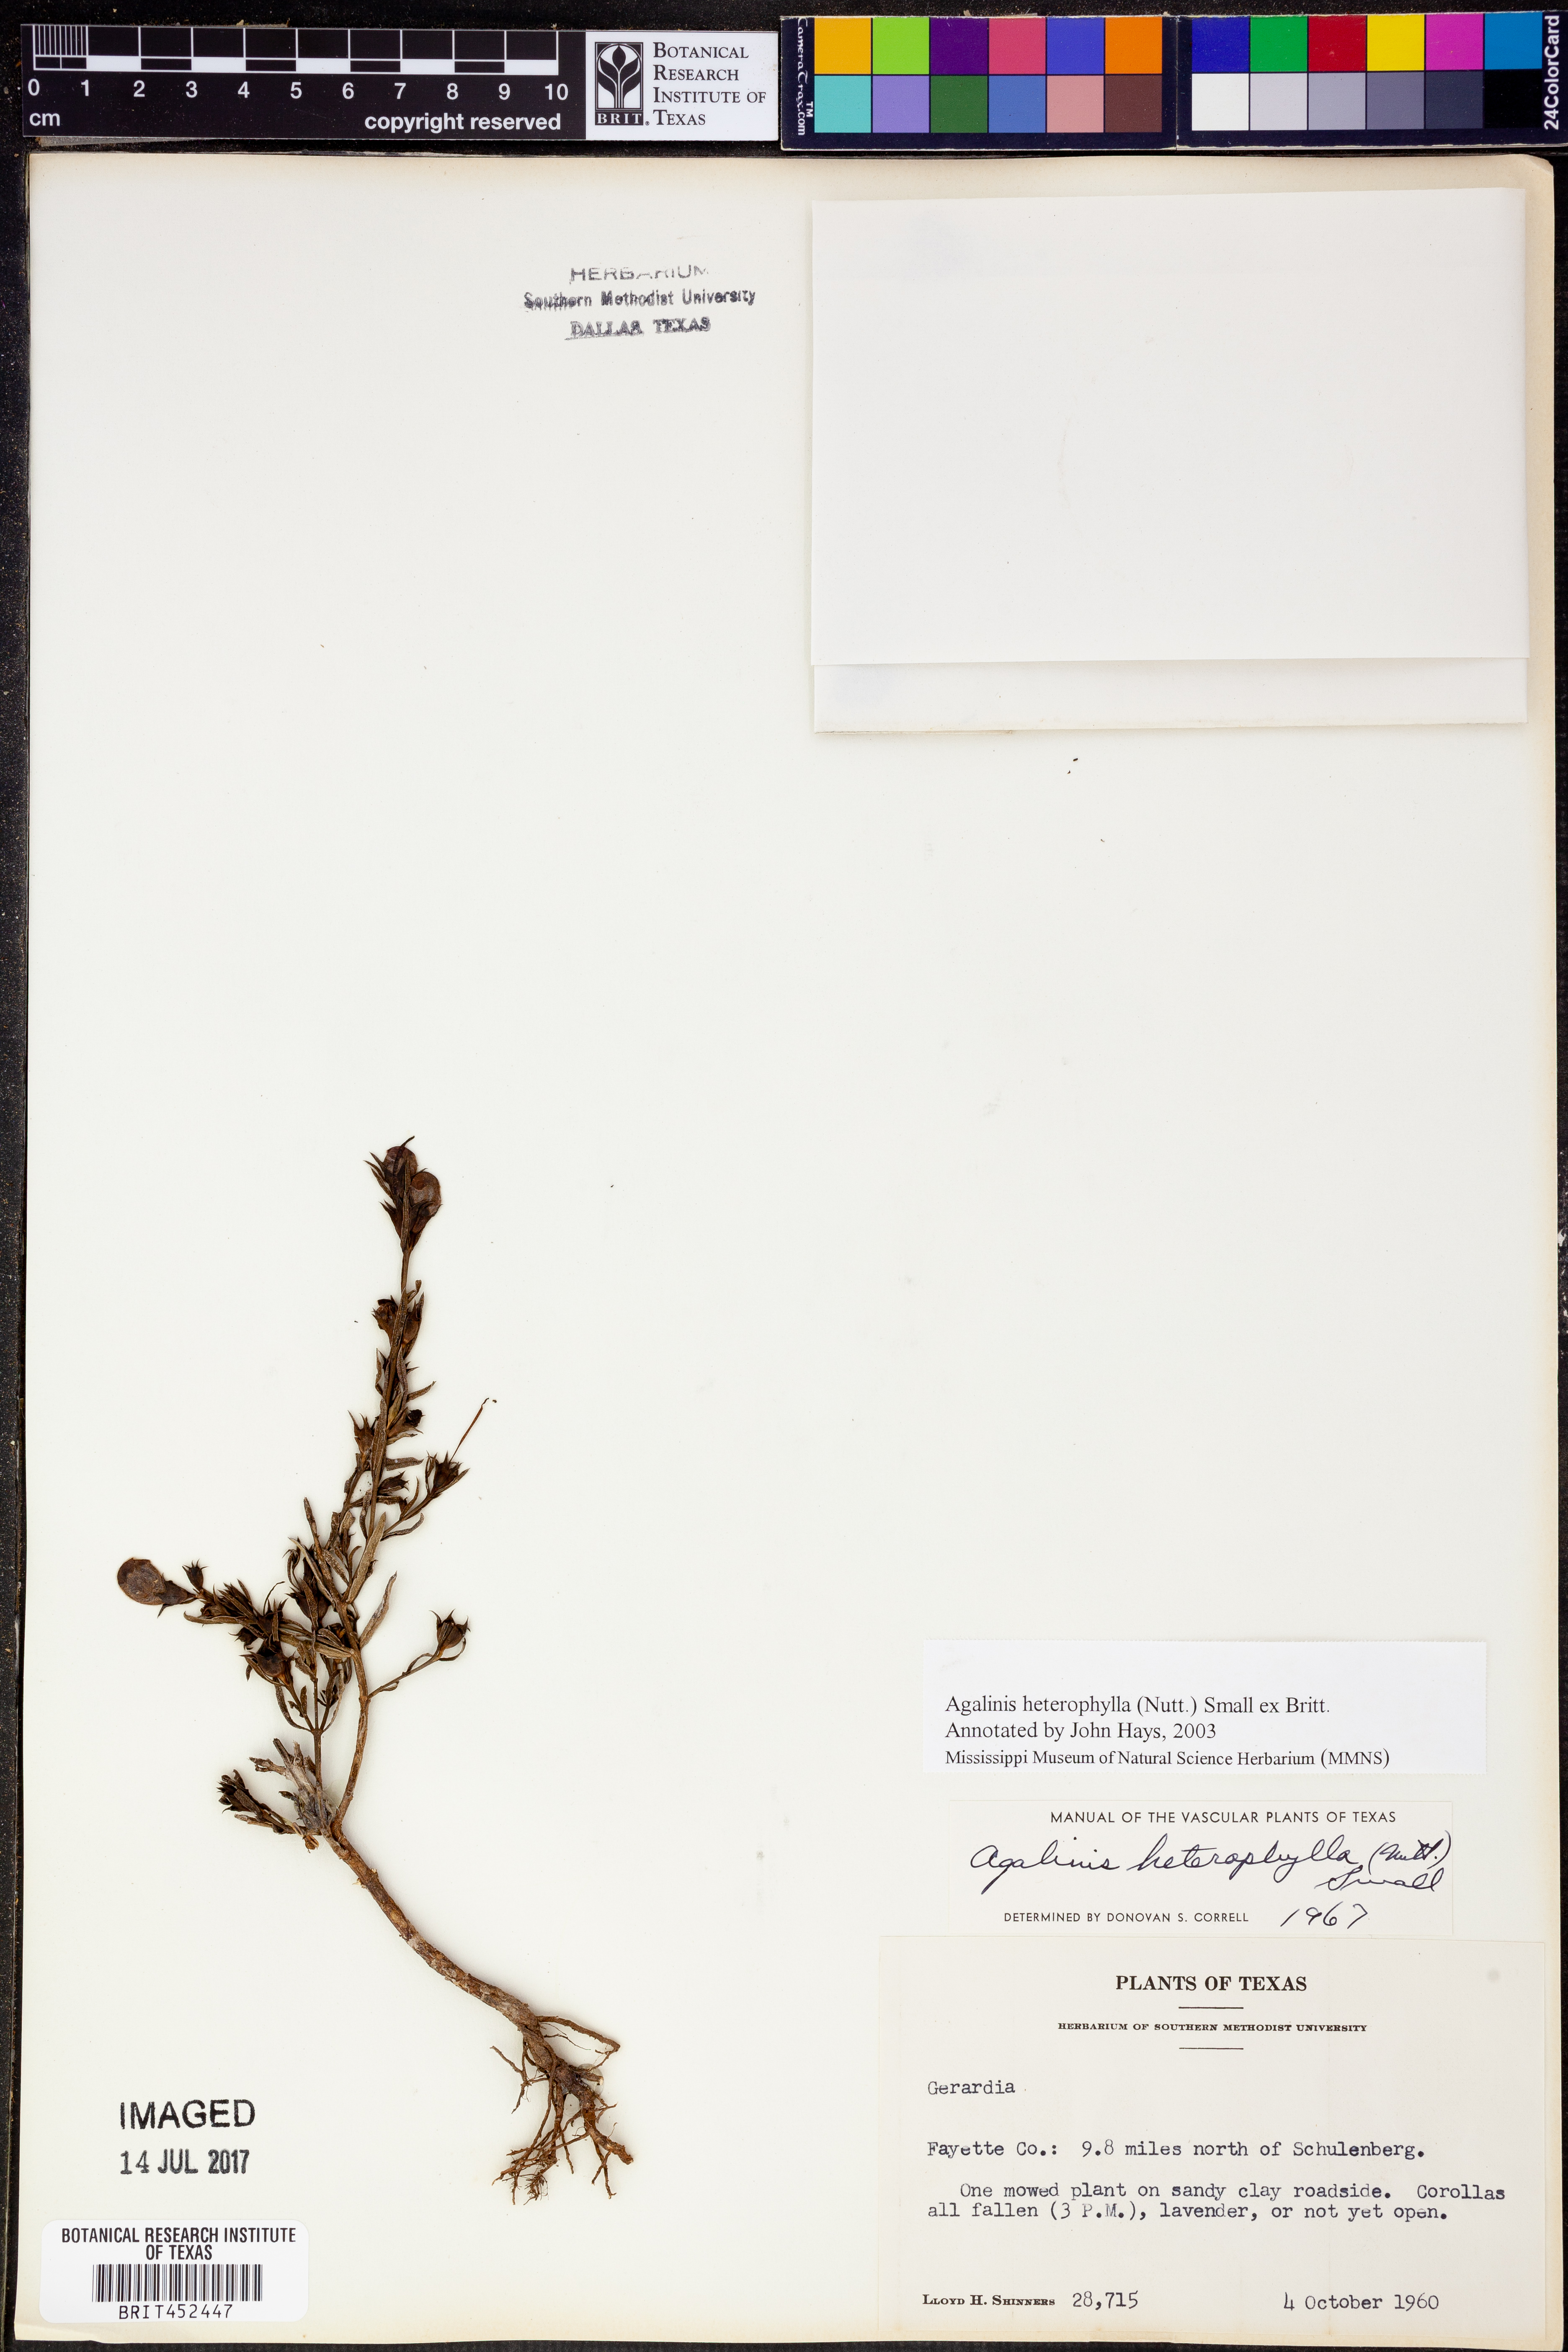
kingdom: Plantae
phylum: Tracheophyta
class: Magnoliopsida
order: Lamiales
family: Orobanchaceae
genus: Agalinis
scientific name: Agalinis heterophylla
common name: Prairie agalinis
